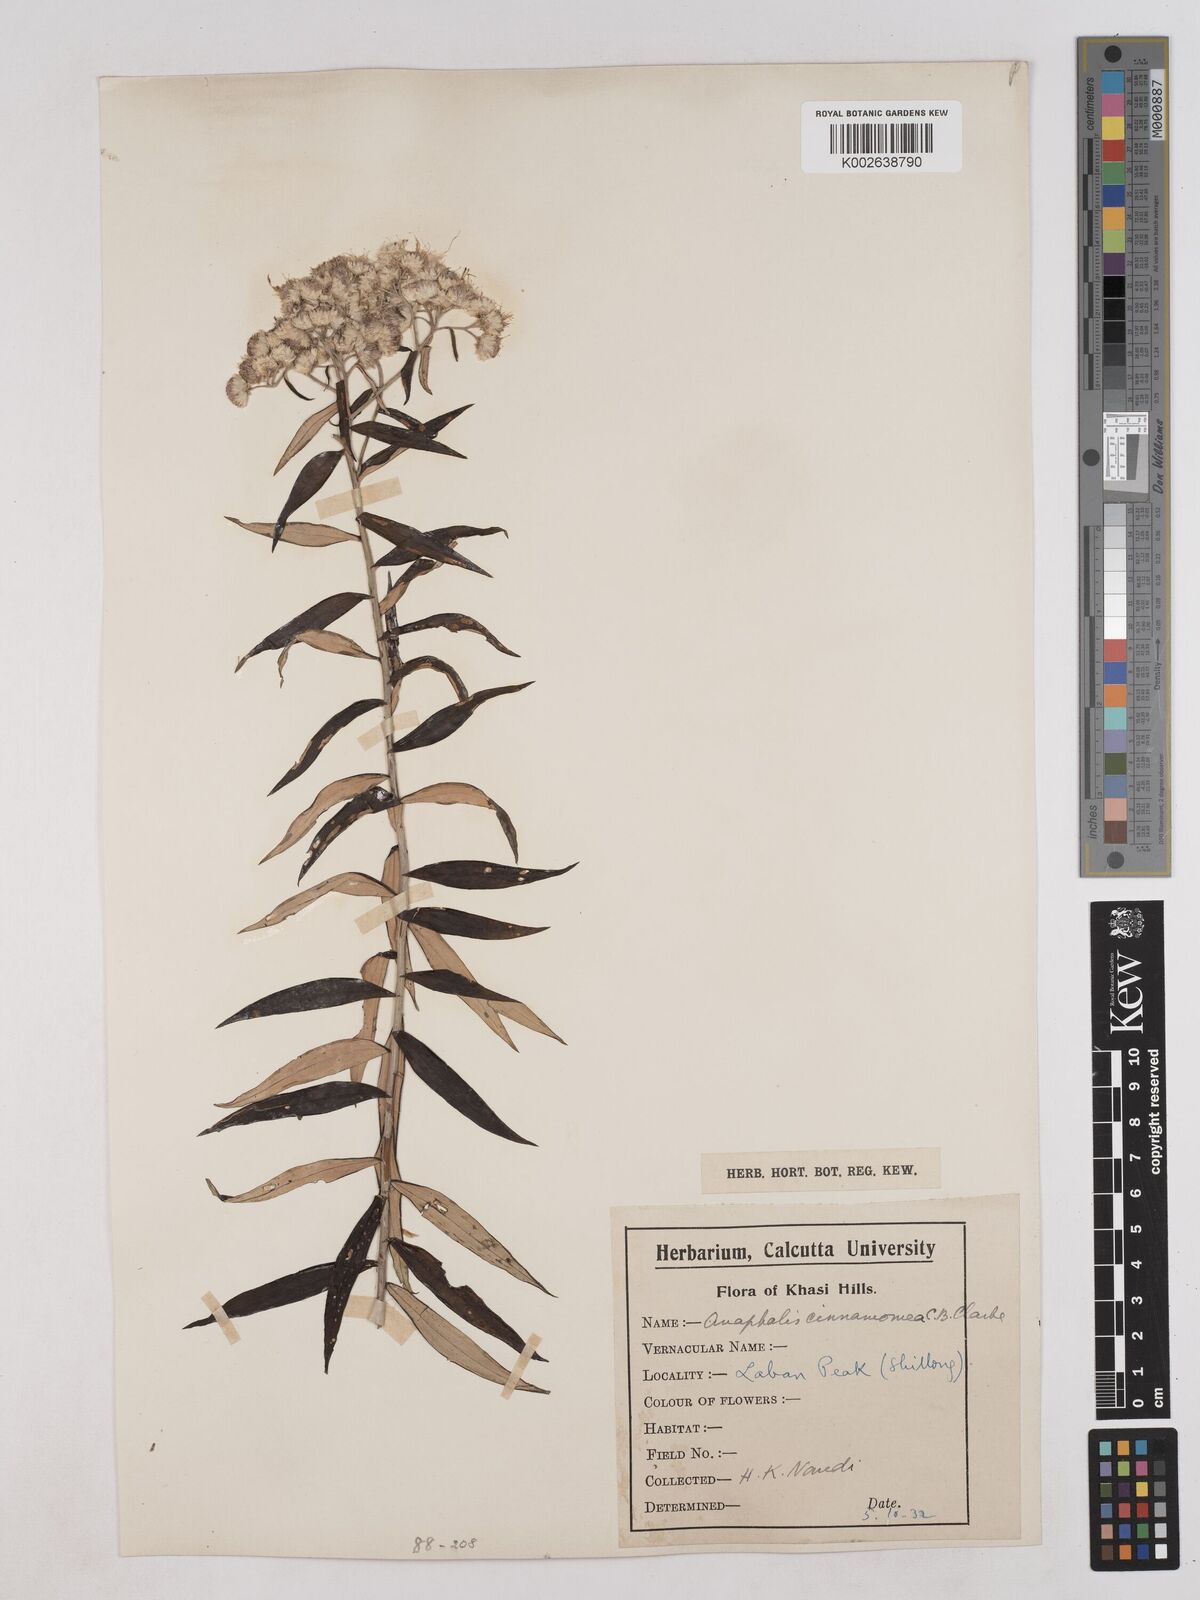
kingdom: Plantae
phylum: Tracheophyta
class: Magnoliopsida
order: Asterales
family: Asteraceae
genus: Anaphalis
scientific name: Anaphalis marcescens
